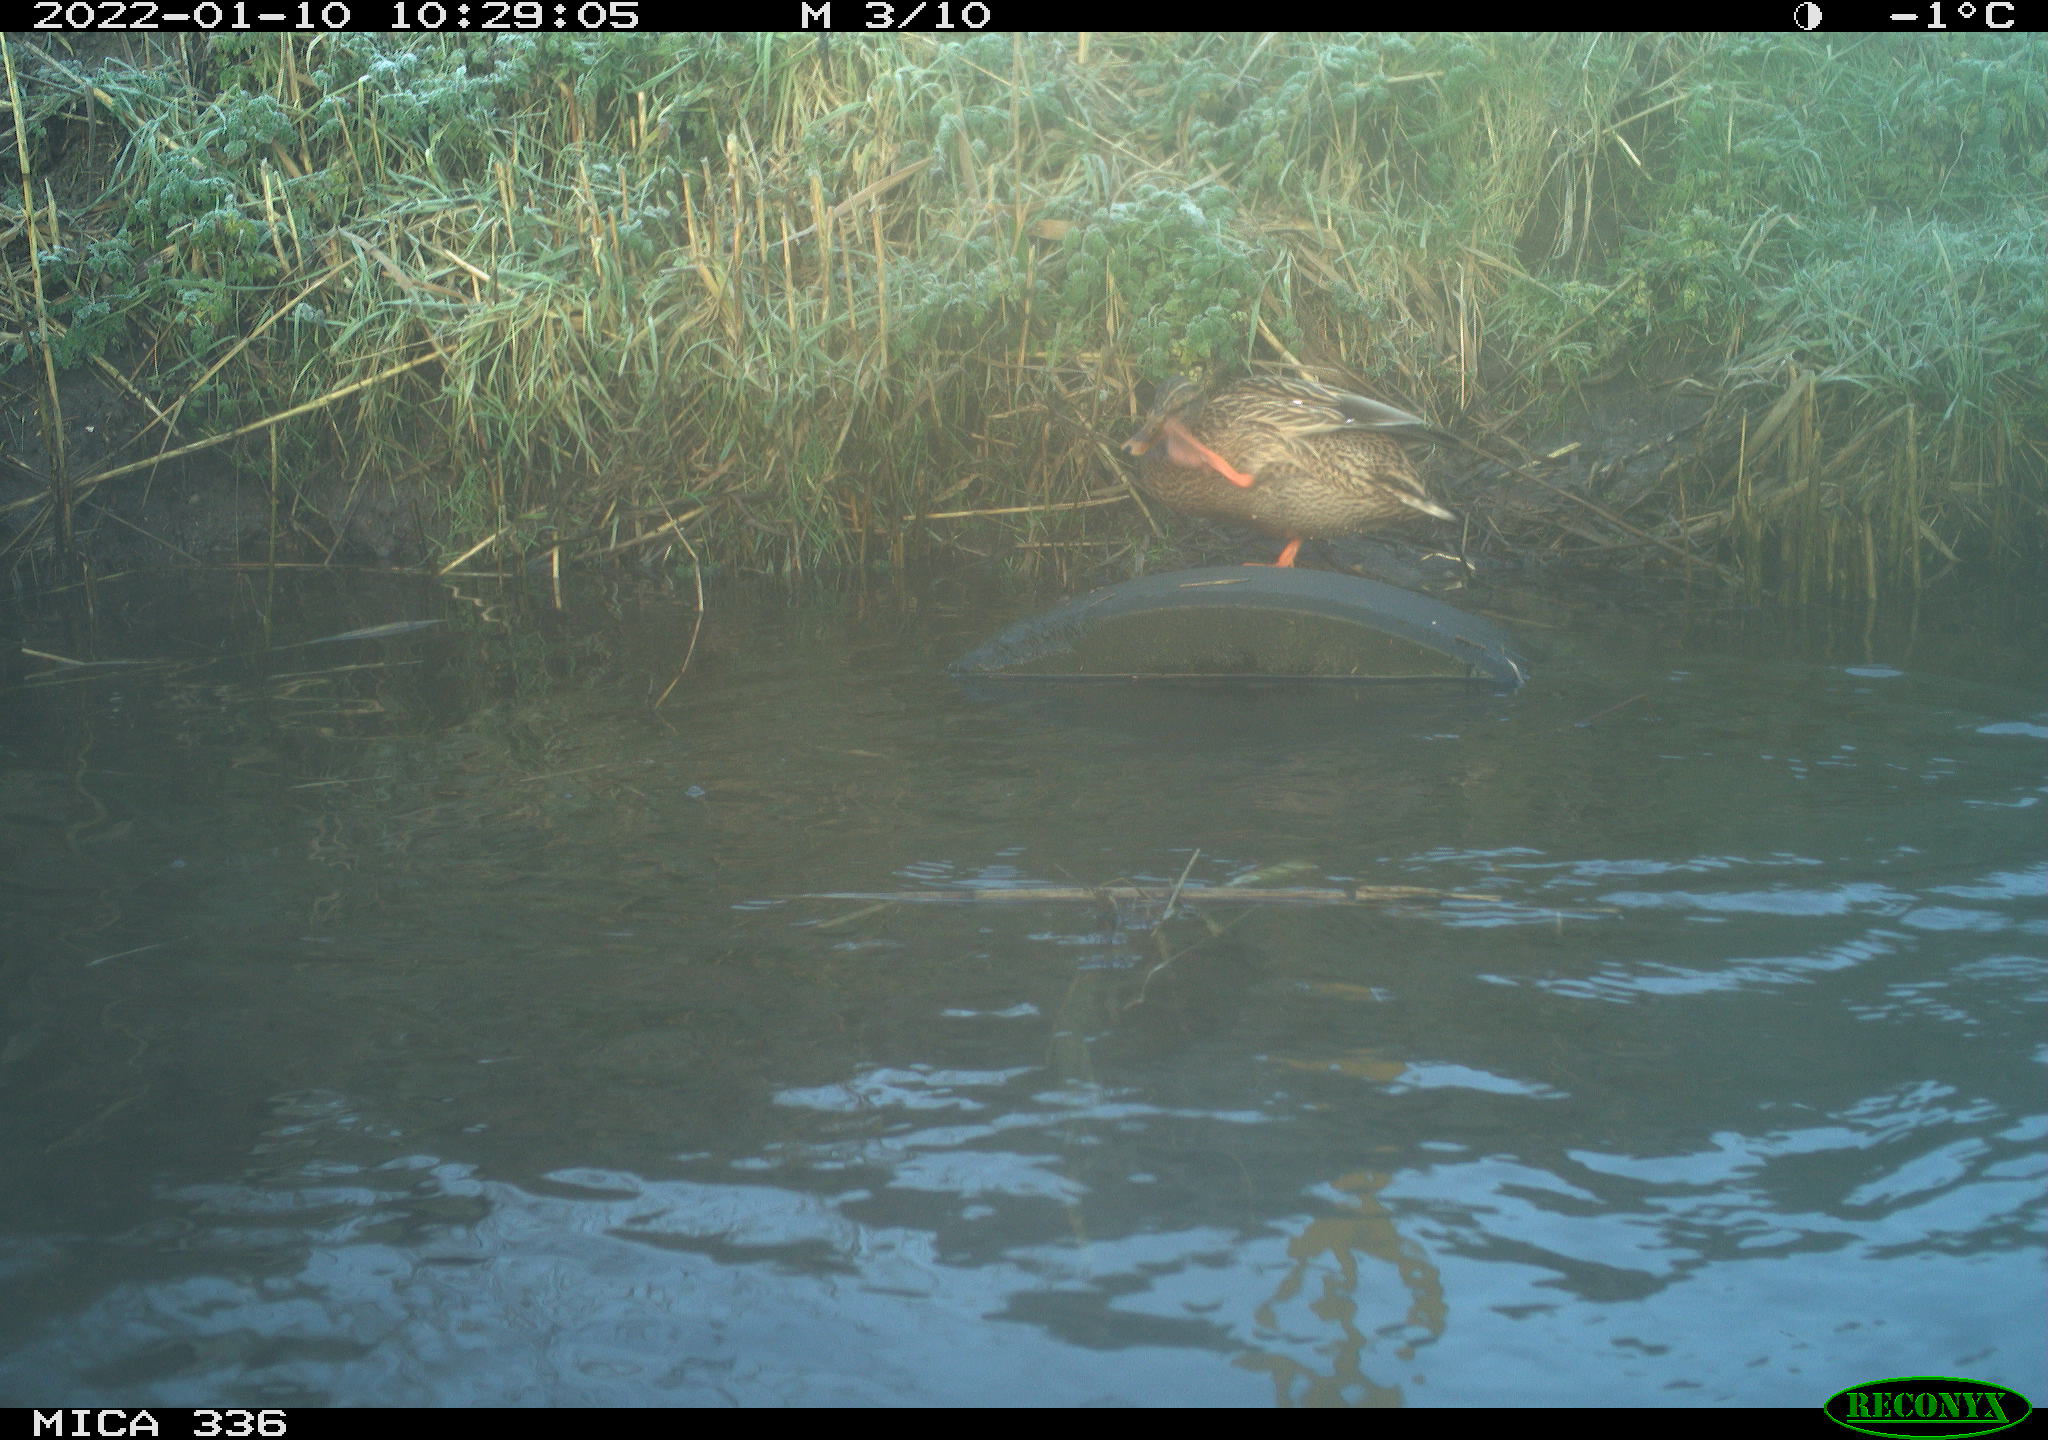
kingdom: Animalia
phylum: Chordata
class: Aves
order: Anseriformes
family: Anatidae
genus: Anas
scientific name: Anas platyrhynchos
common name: Mallard
